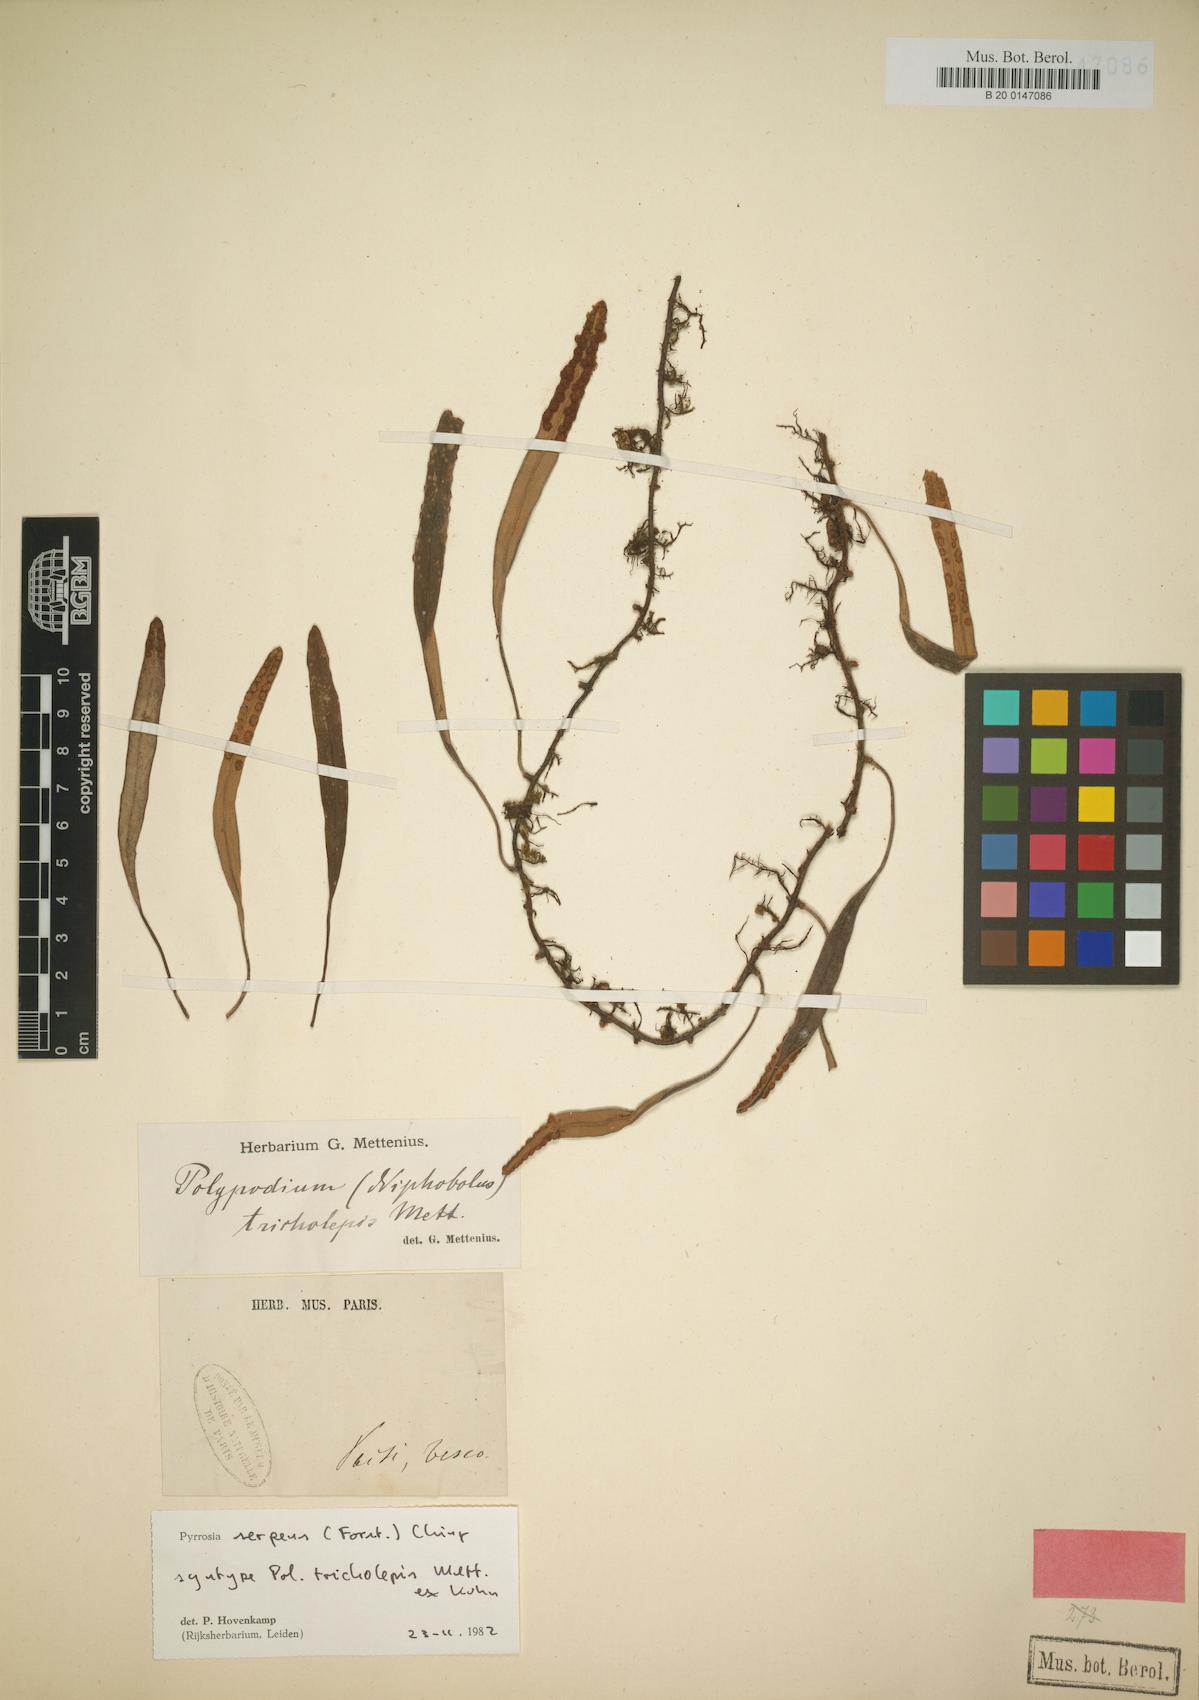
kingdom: Plantae
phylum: Tracheophyta
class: Polypodiopsida
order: Polypodiales
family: Polypodiaceae
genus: Pyrrosia
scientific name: Pyrrosia serpens
